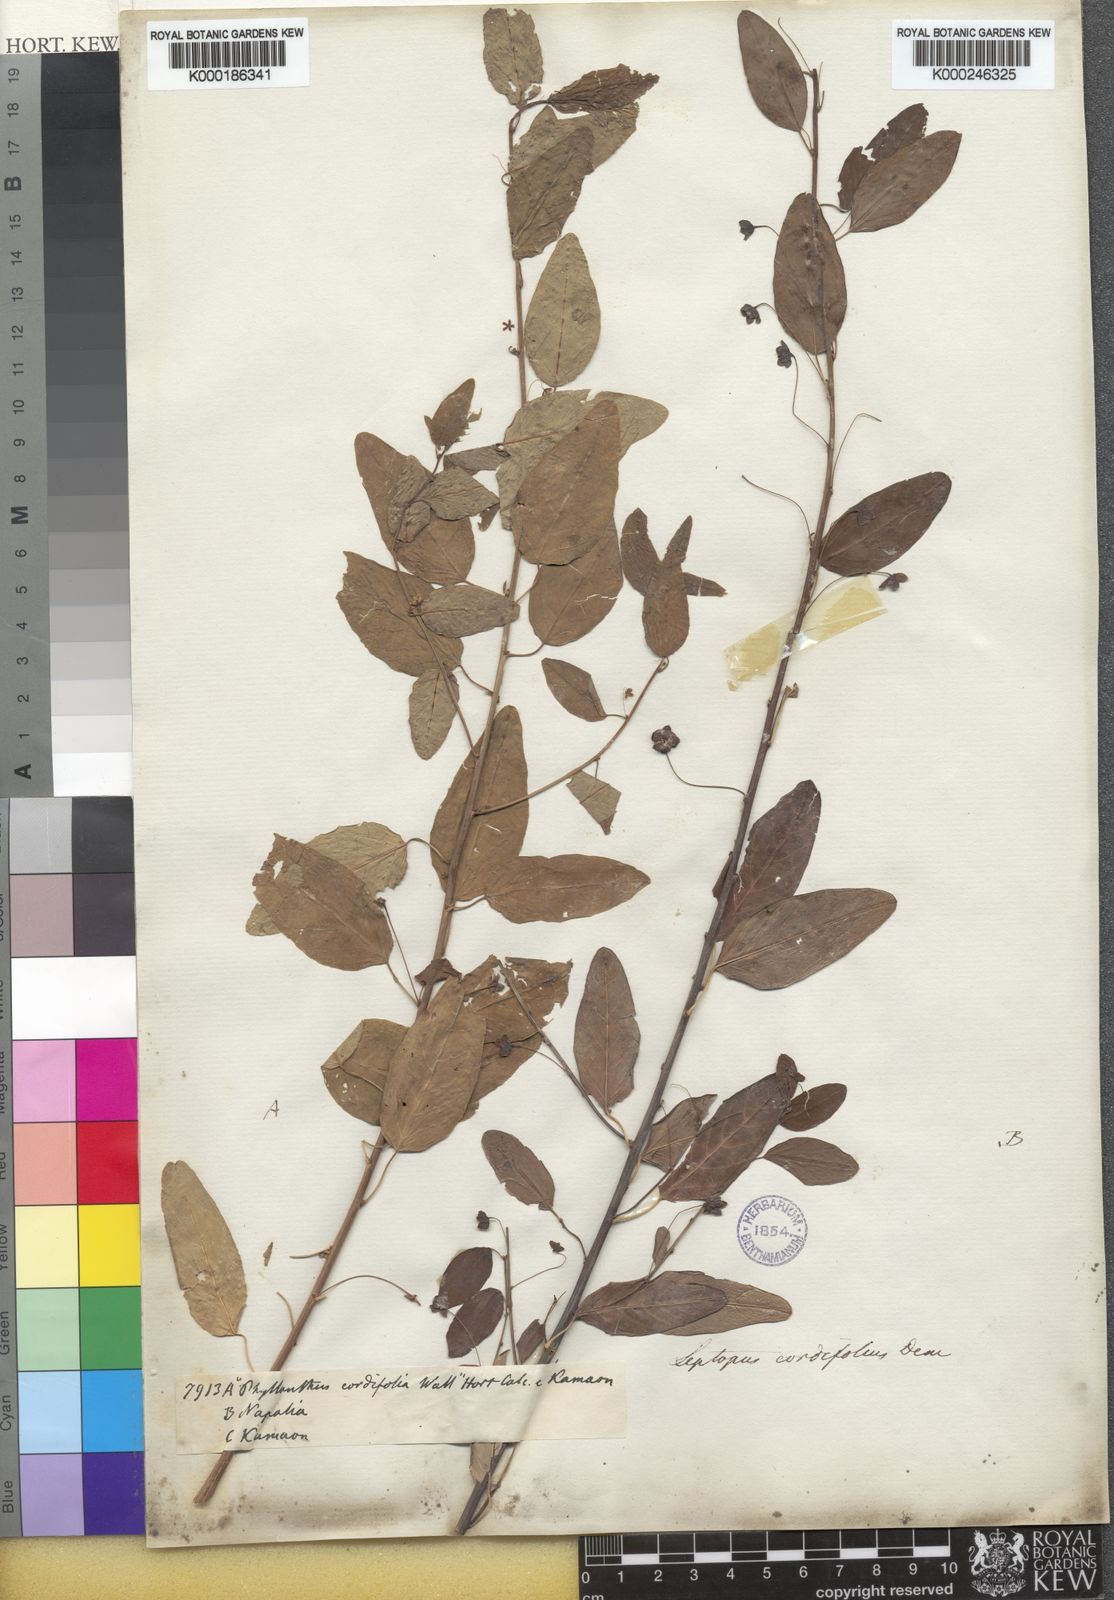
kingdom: Plantae
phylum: Tracheophyta
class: Magnoliopsida
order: Malpighiales
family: Phyllanthaceae
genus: Leptopus
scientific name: Leptopus cordifolius
